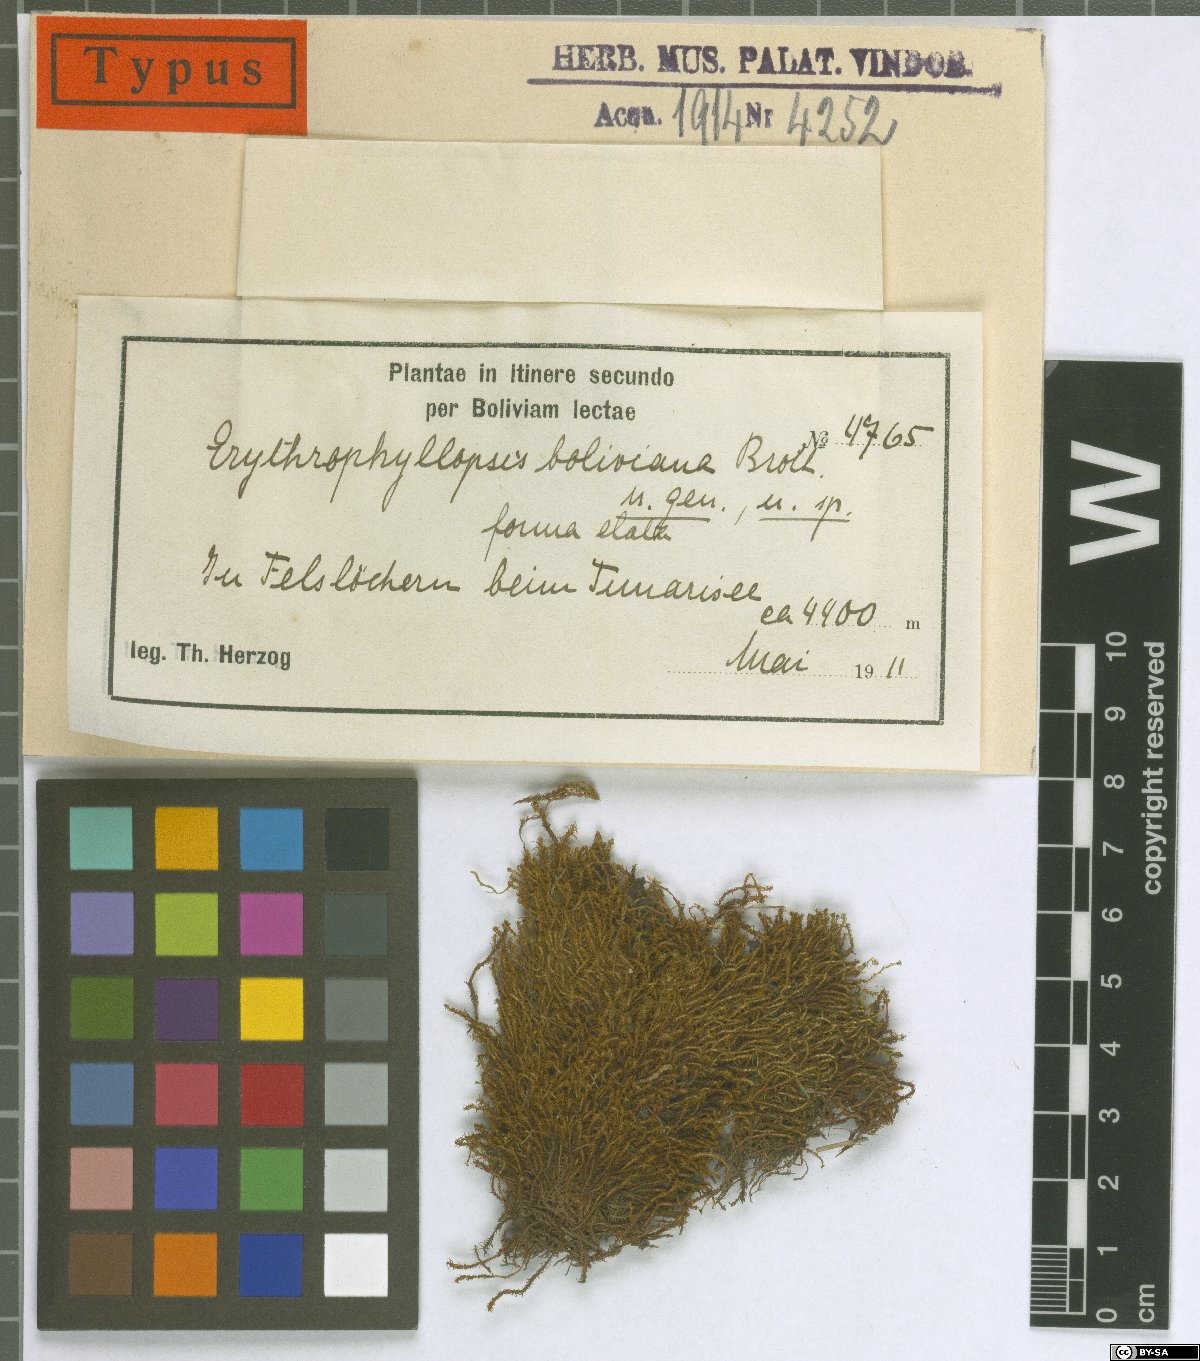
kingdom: Plantae
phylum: Bryophyta
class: Bryopsida
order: Pottiales
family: Pottiaceae
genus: Erythrophyllopsis
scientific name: Erythrophyllopsis andina
